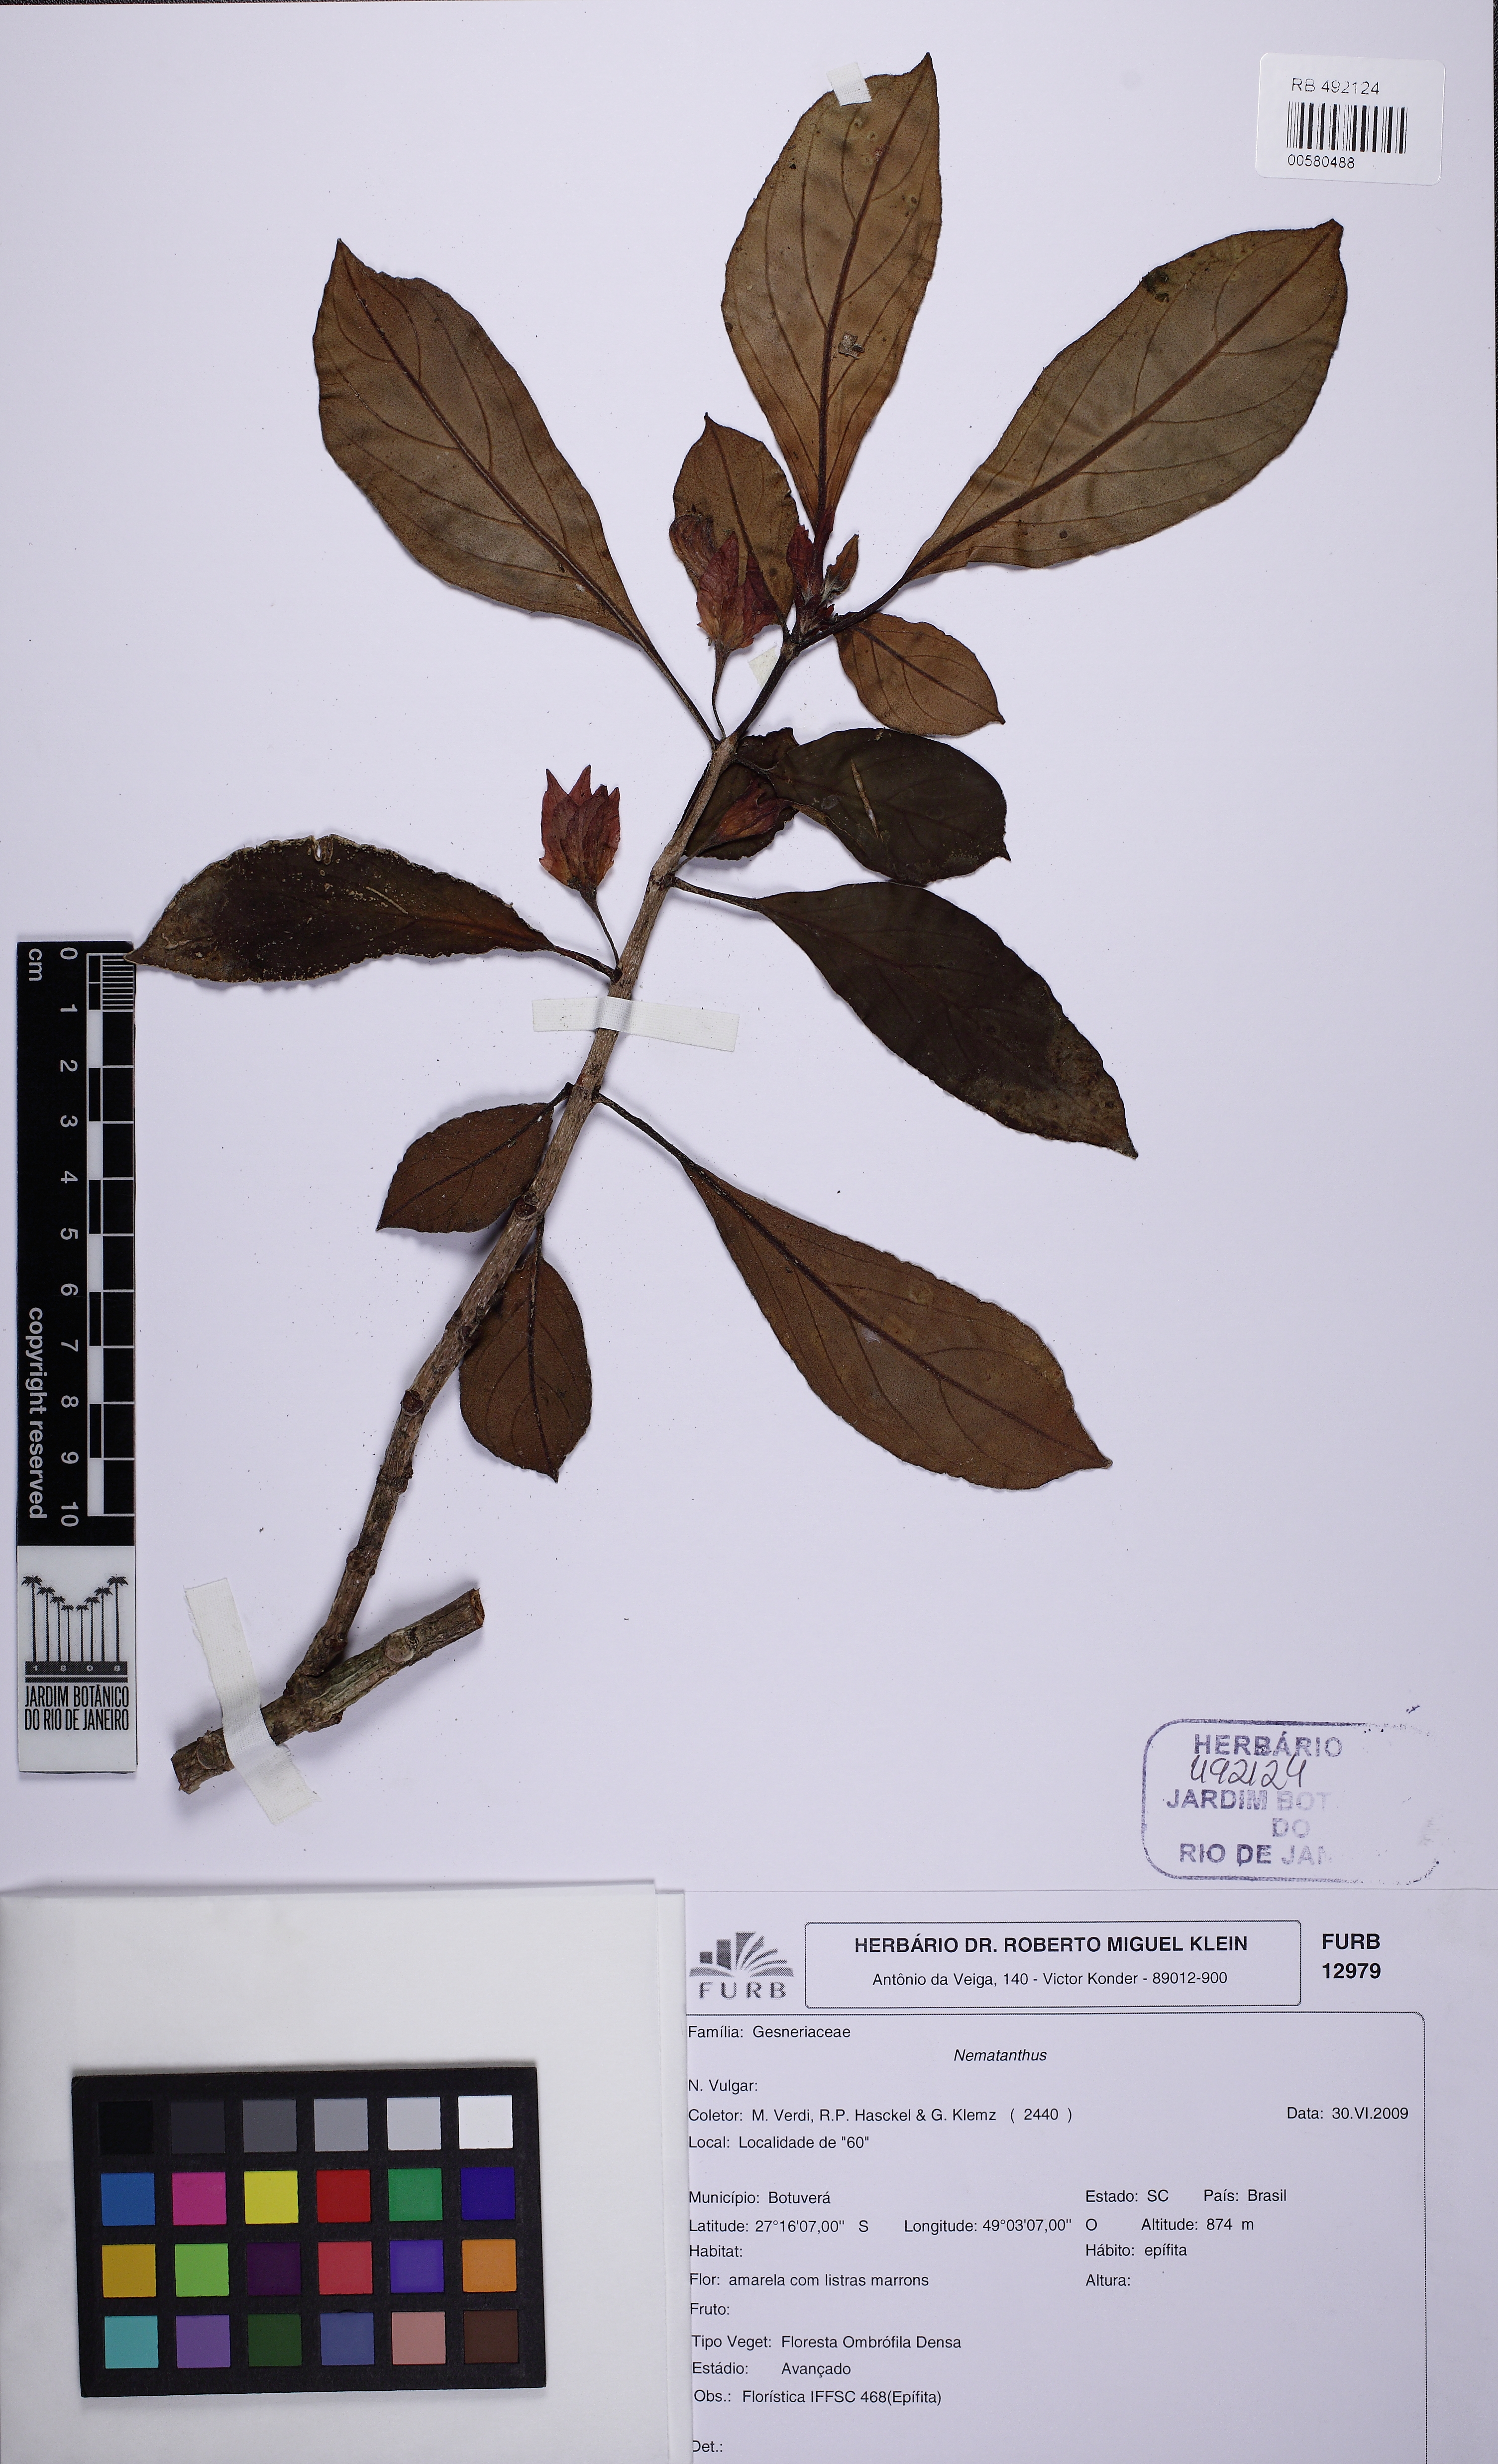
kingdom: Plantae
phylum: Tracheophyta
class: Magnoliopsida
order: Lamiales
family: Gesneriaceae
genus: Nematanthus
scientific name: Nematanthus
